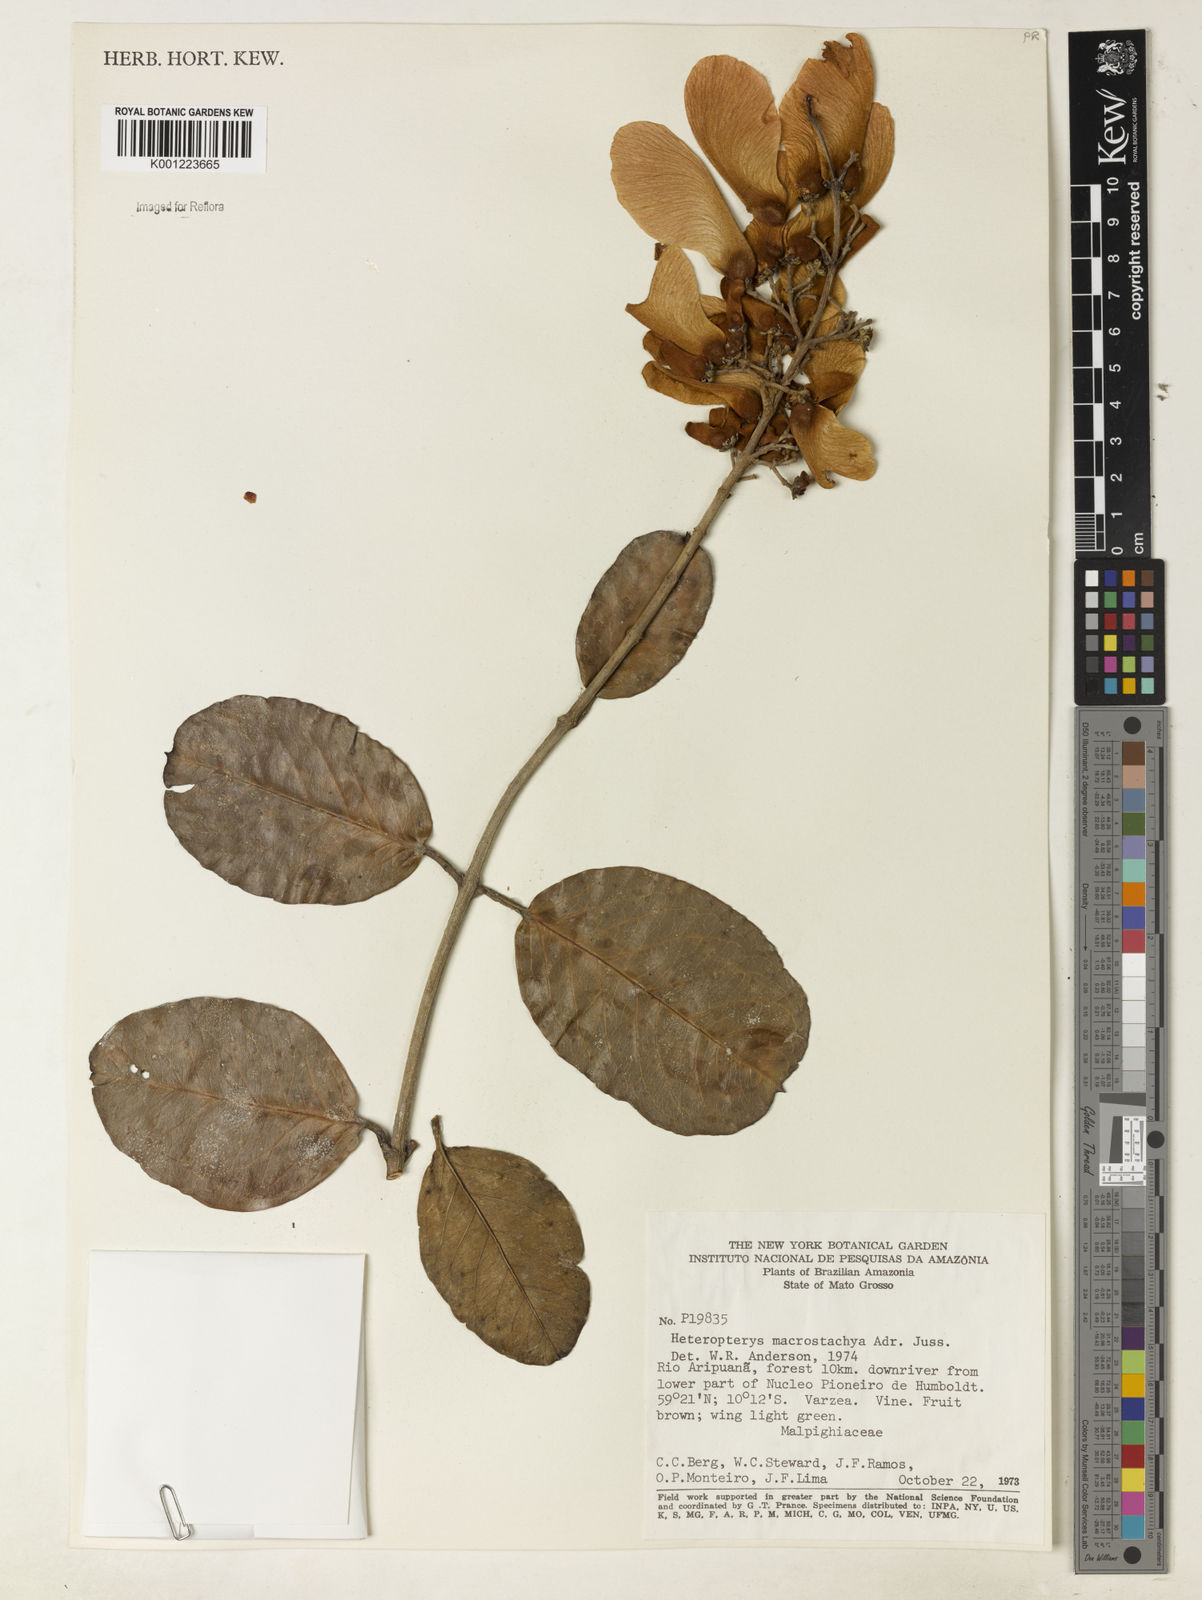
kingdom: Plantae
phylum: Tracheophyta
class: Magnoliopsida
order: Malpighiales
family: Malpighiaceae
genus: Heteropterys
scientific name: Heteropterys macrostachya
